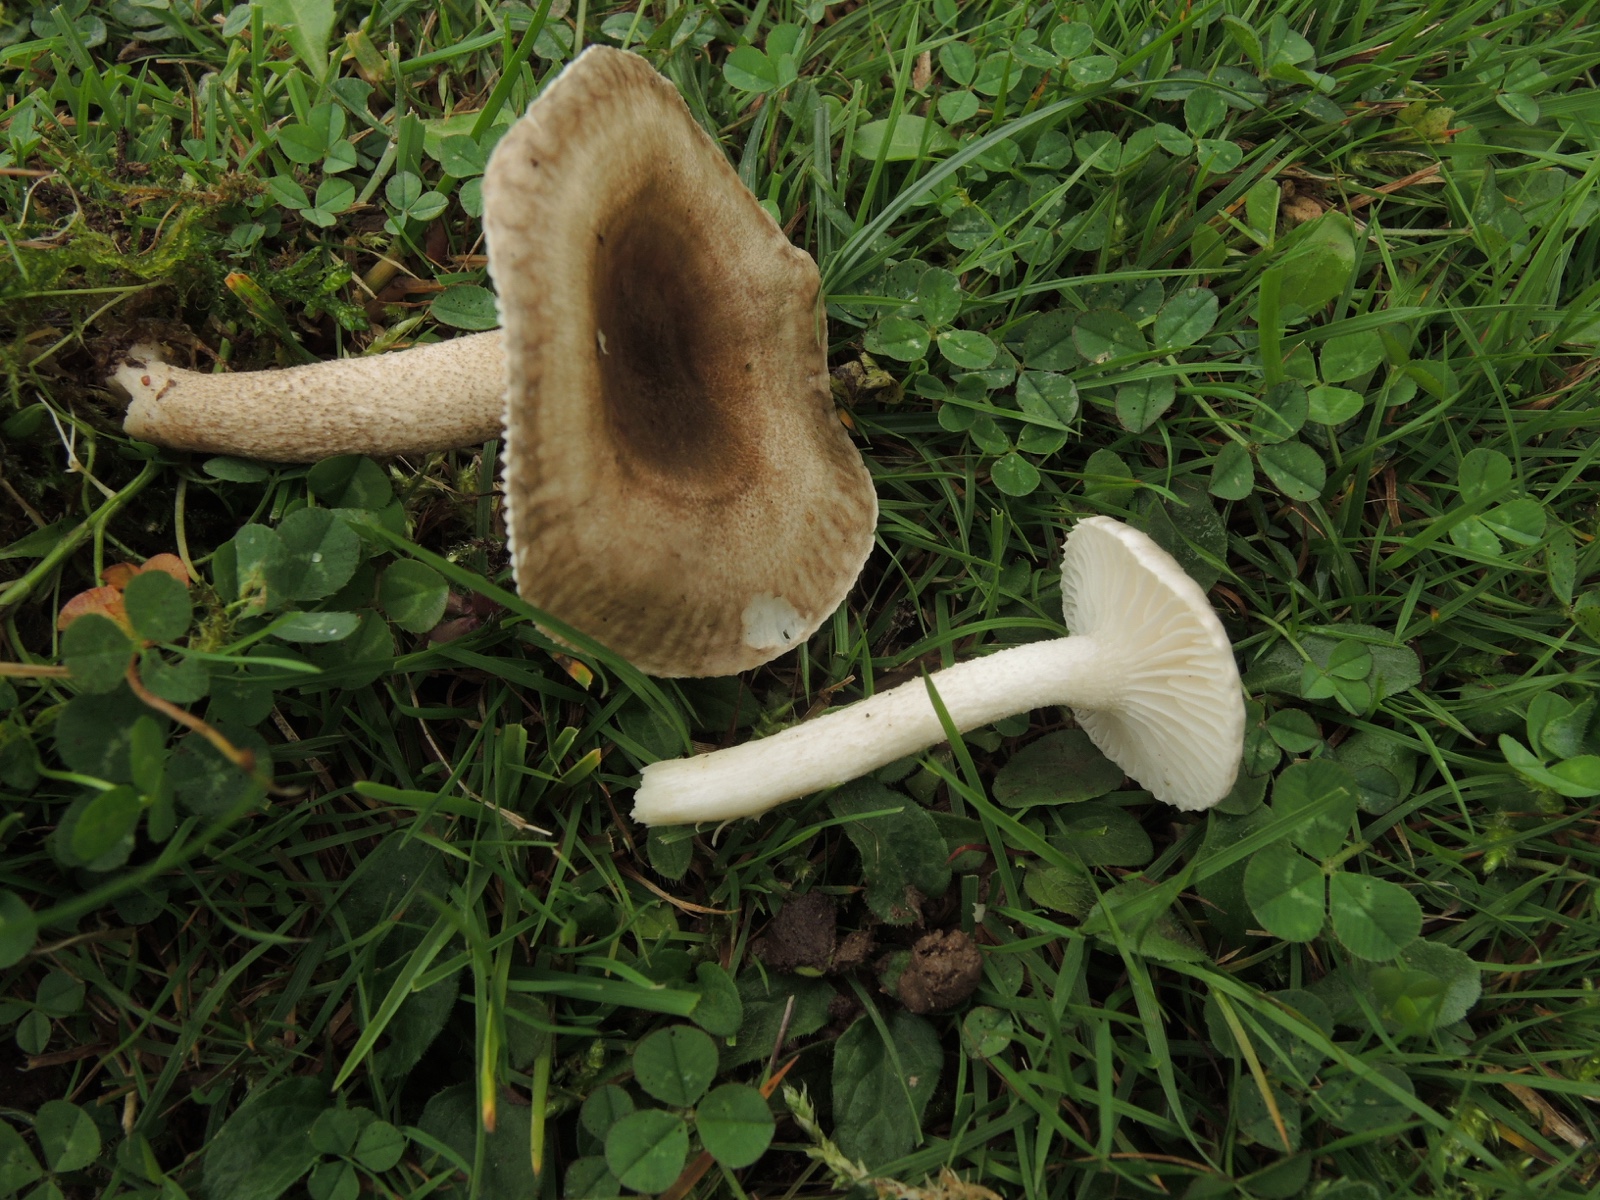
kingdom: Fungi
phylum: Basidiomycota
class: Agaricomycetes
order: Agaricales
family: Hygrophoraceae
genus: Hygrophorus
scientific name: Hygrophorus pustulatus
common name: mørkprikket sneglehat
